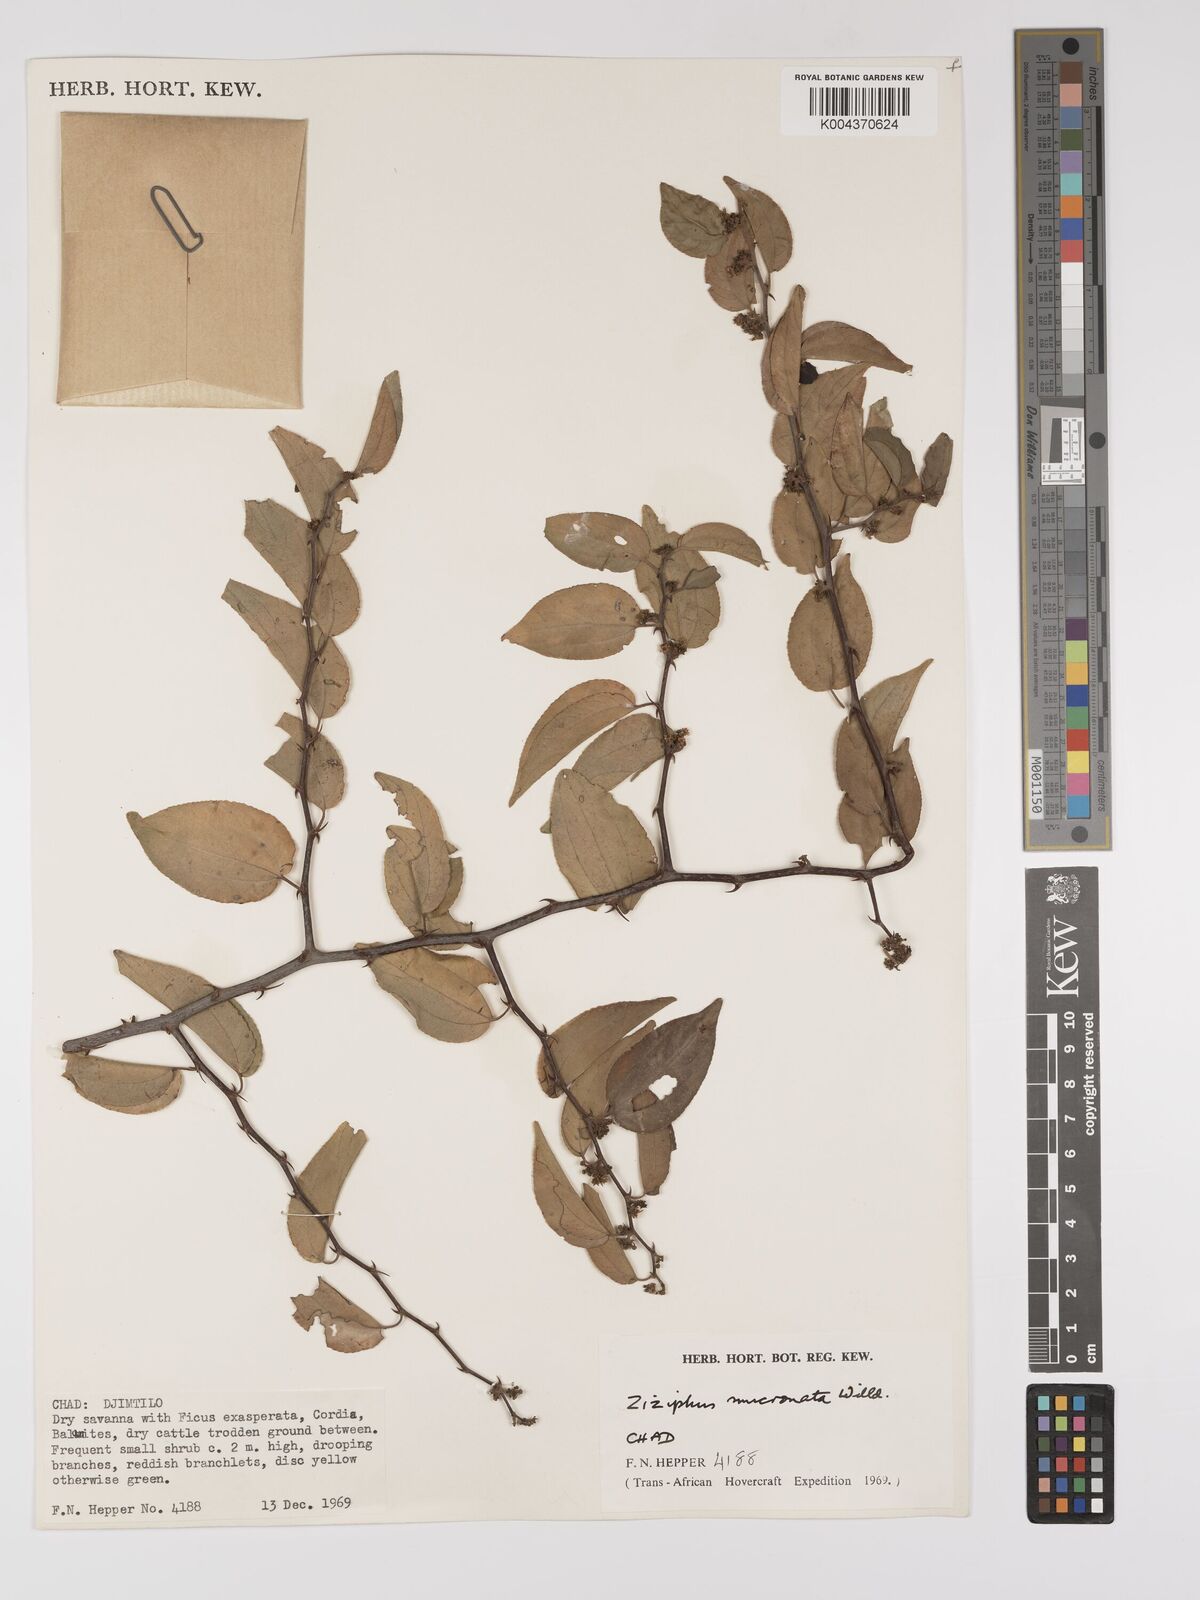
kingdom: Plantae
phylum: Tracheophyta
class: Magnoliopsida
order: Rosales
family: Rhamnaceae
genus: Ziziphus
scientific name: Ziziphus mucronata
